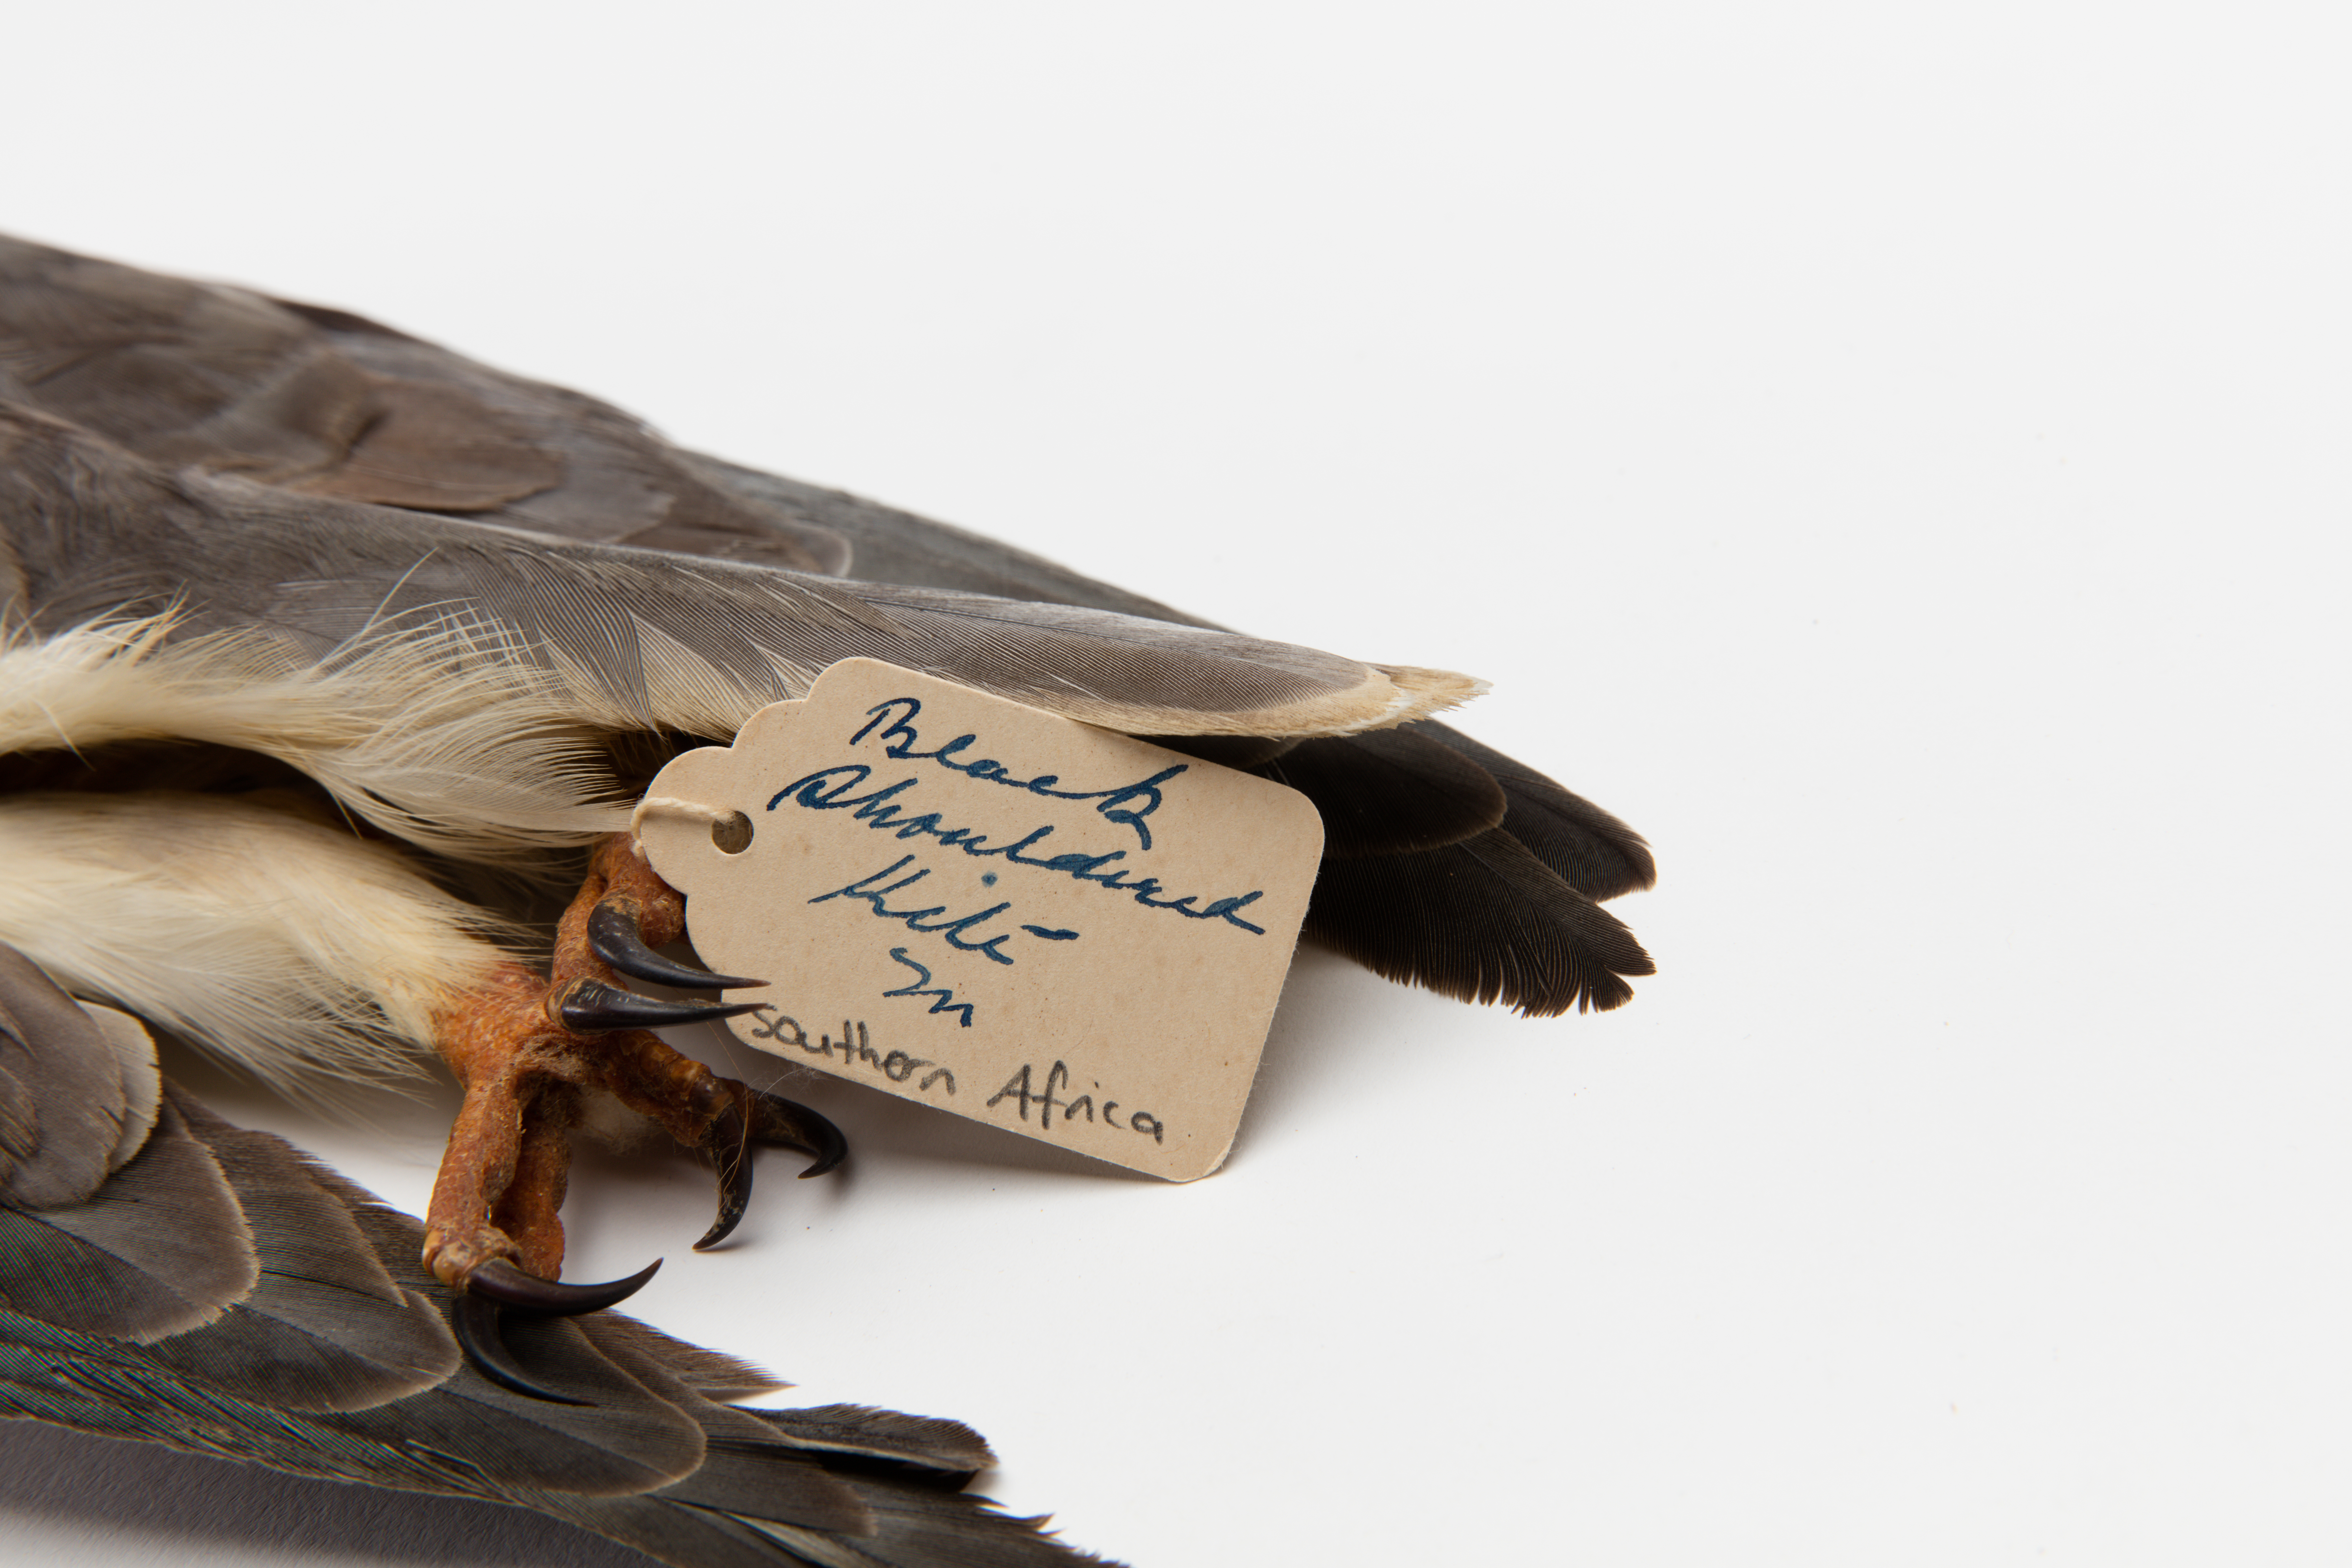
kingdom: Animalia
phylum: Chordata
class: Aves
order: Accipitriformes
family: Accipitridae
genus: Elanus
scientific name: Elanus caeruleus
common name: Black-winged kite
